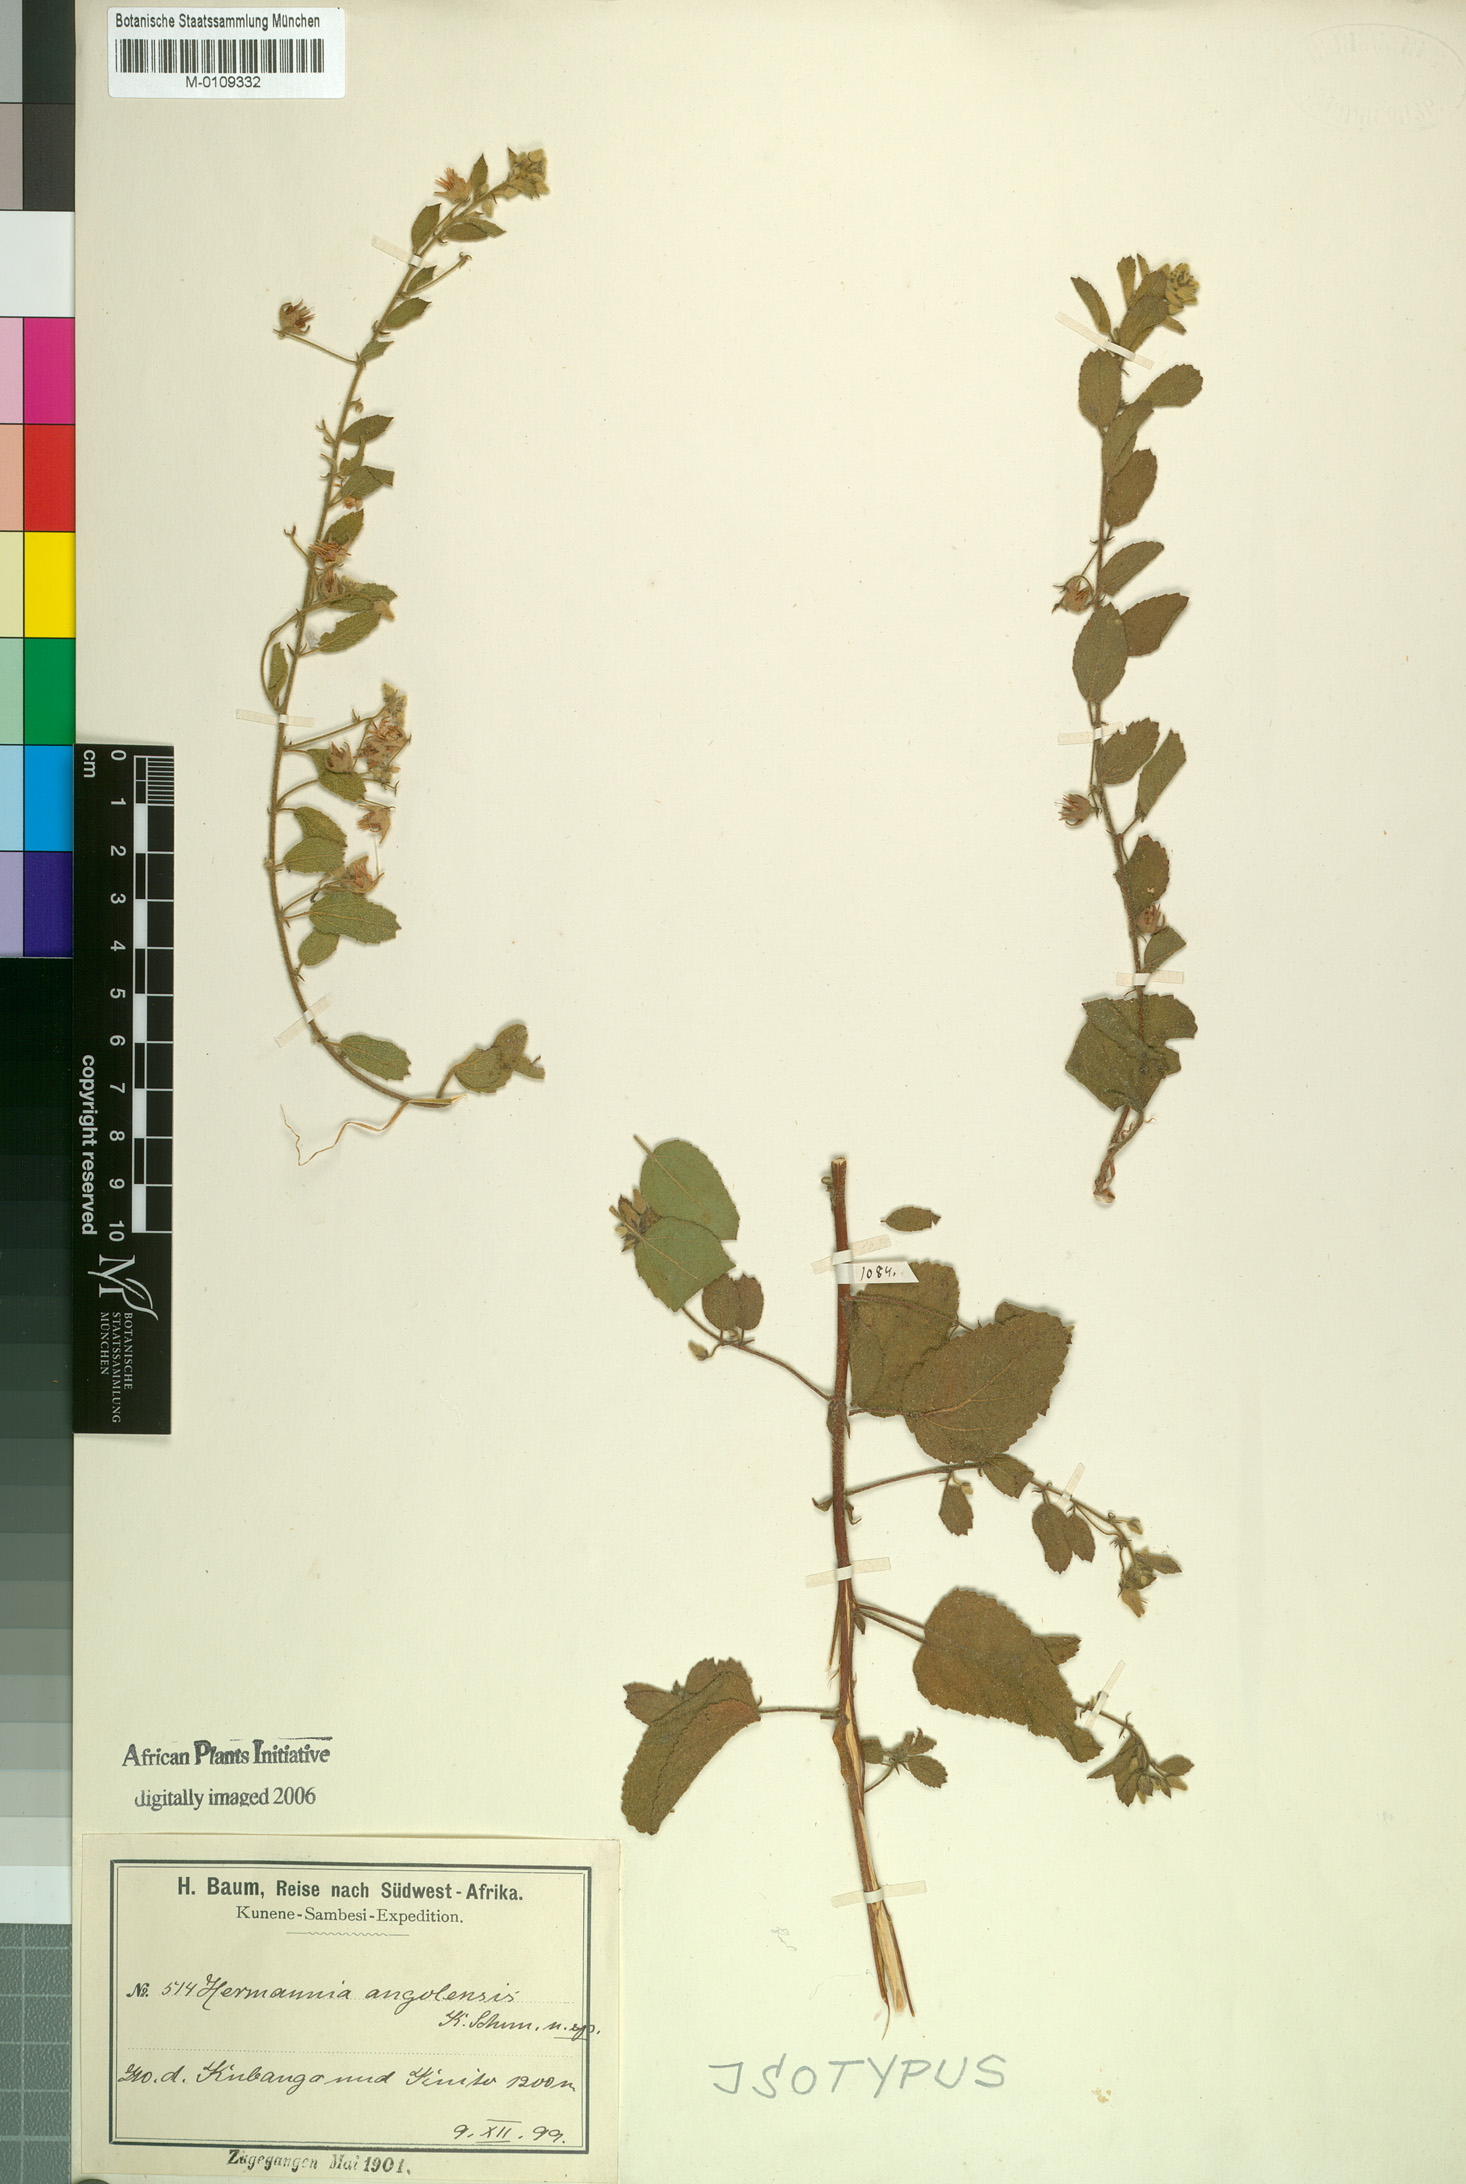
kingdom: Plantae
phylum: Tracheophyta
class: Magnoliopsida
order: Malvales
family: Malvaceae
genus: Hermannia
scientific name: Hermannia eenii
